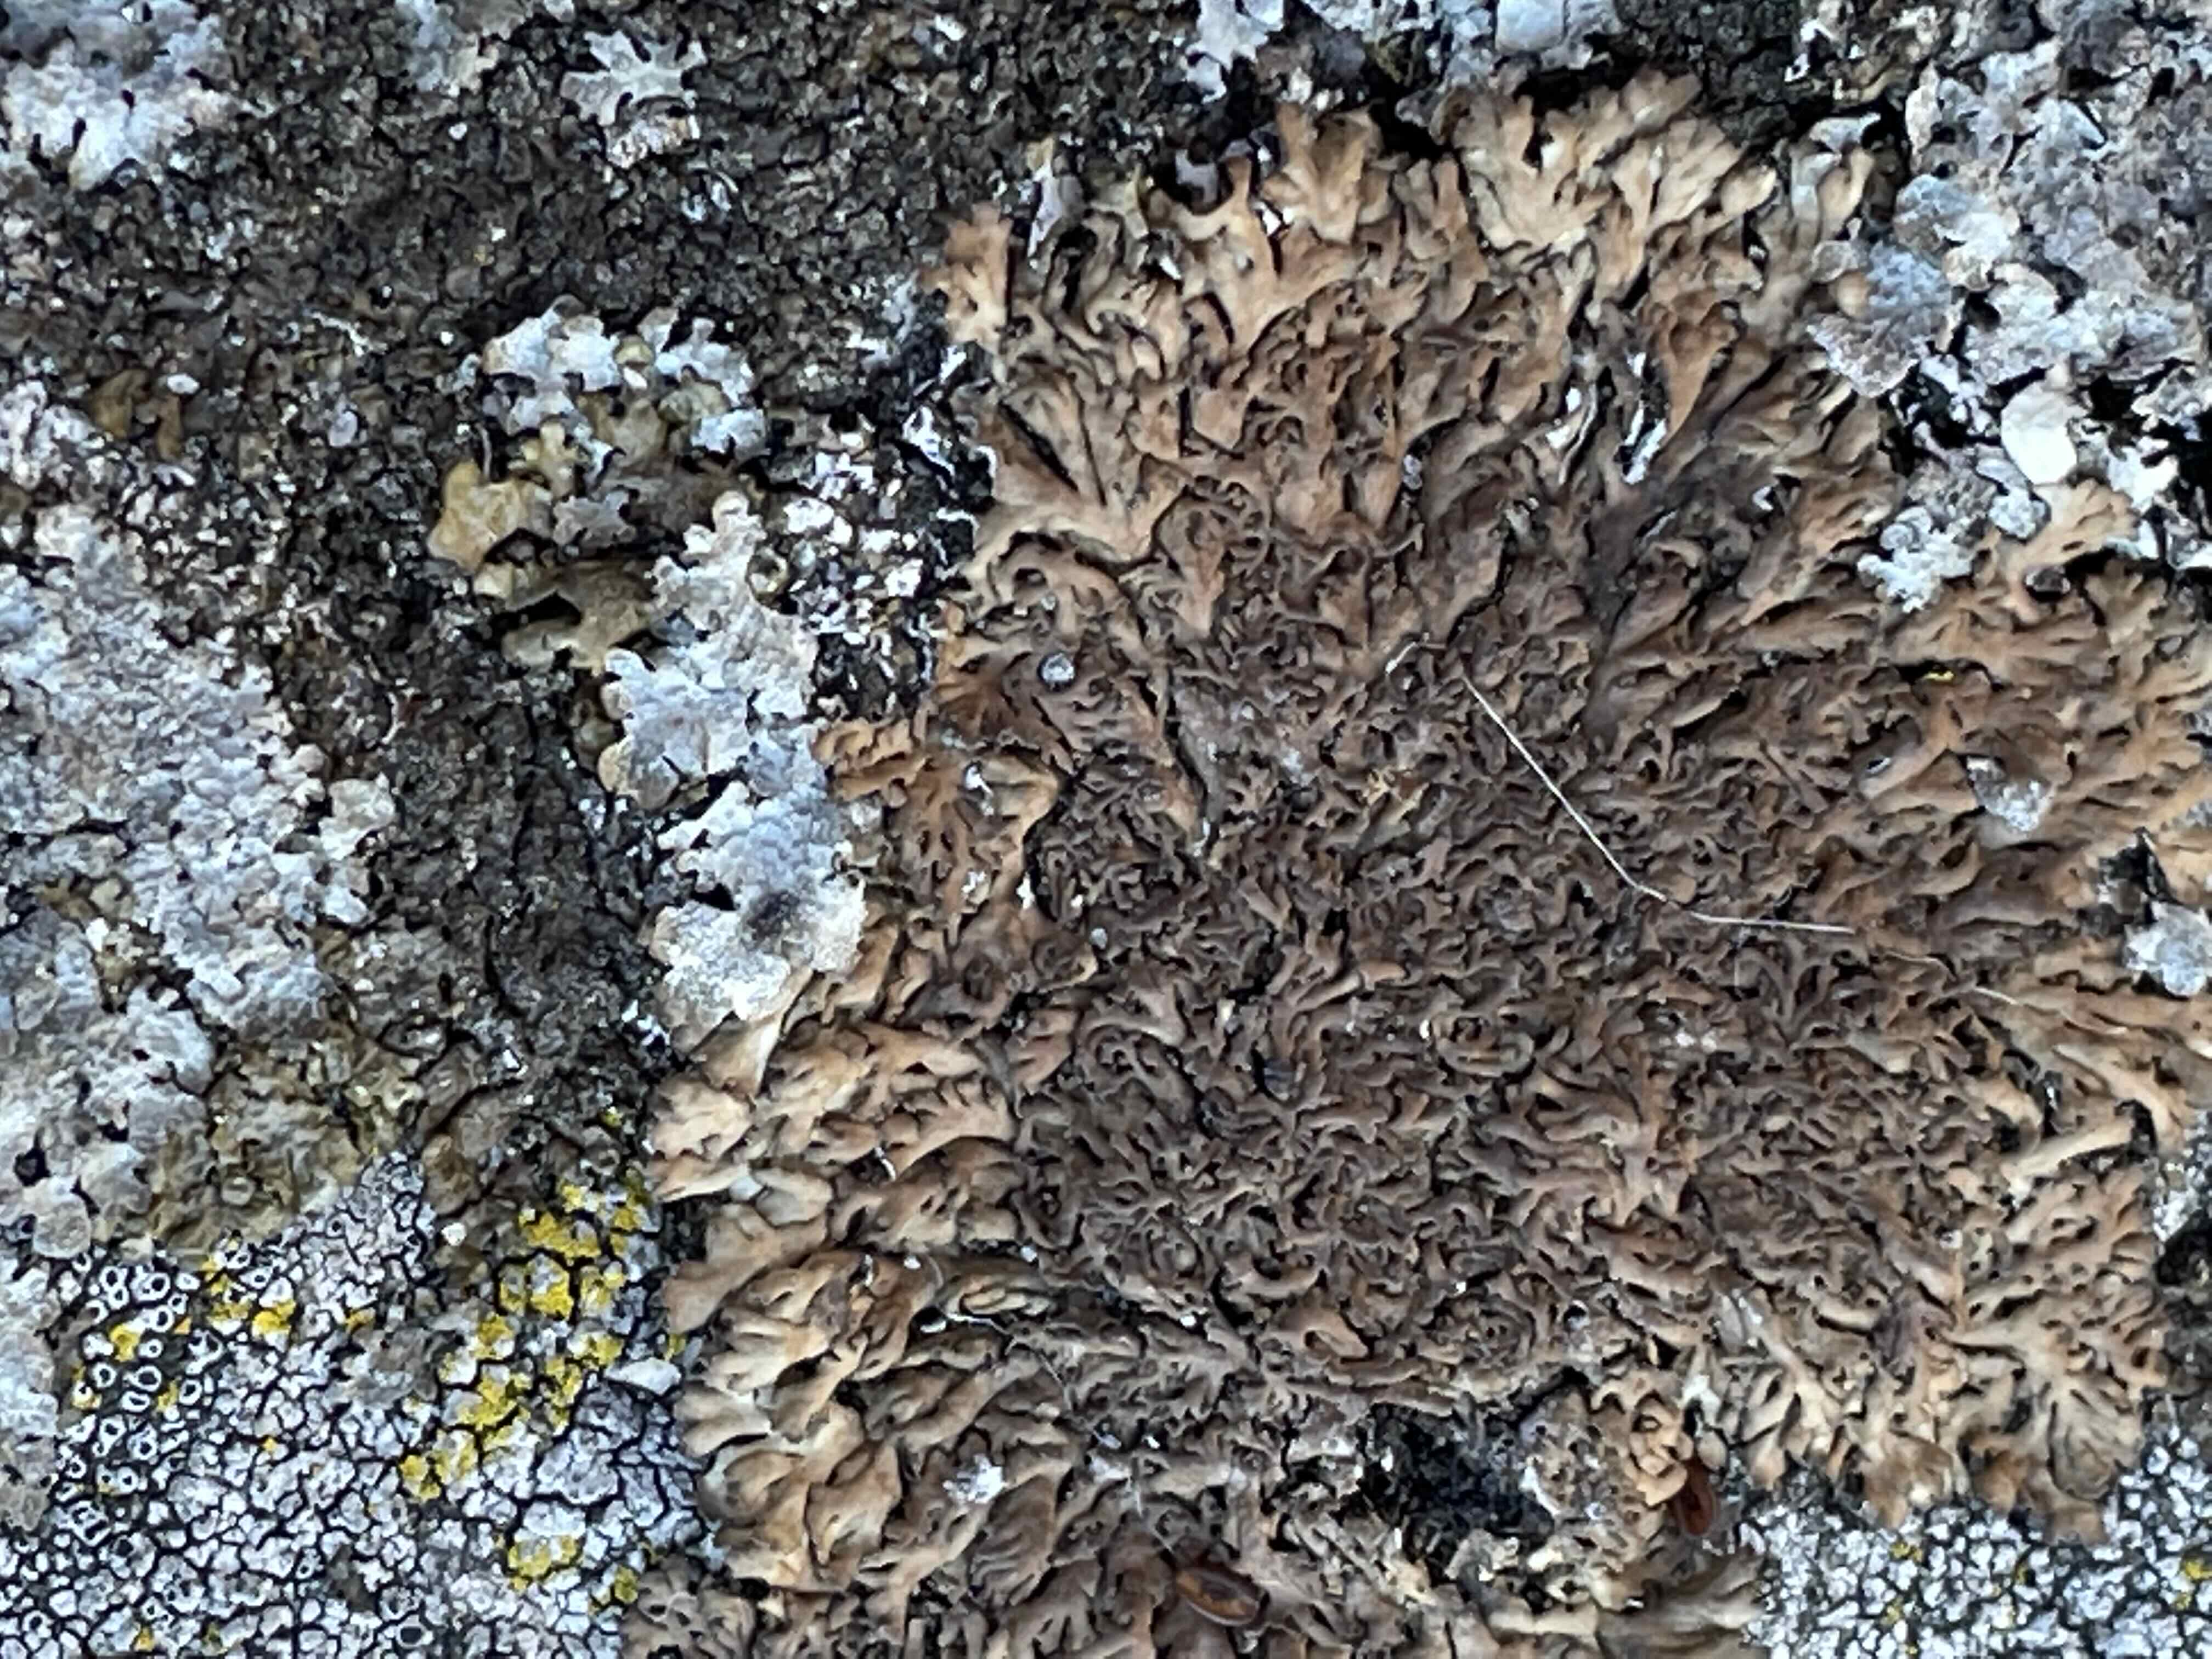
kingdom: Fungi
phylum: Ascomycota
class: Lecanoromycetes
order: Caliciales
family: Physciaceae
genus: Kurokawia
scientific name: Kurokawia runcinata
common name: brun frynselav
